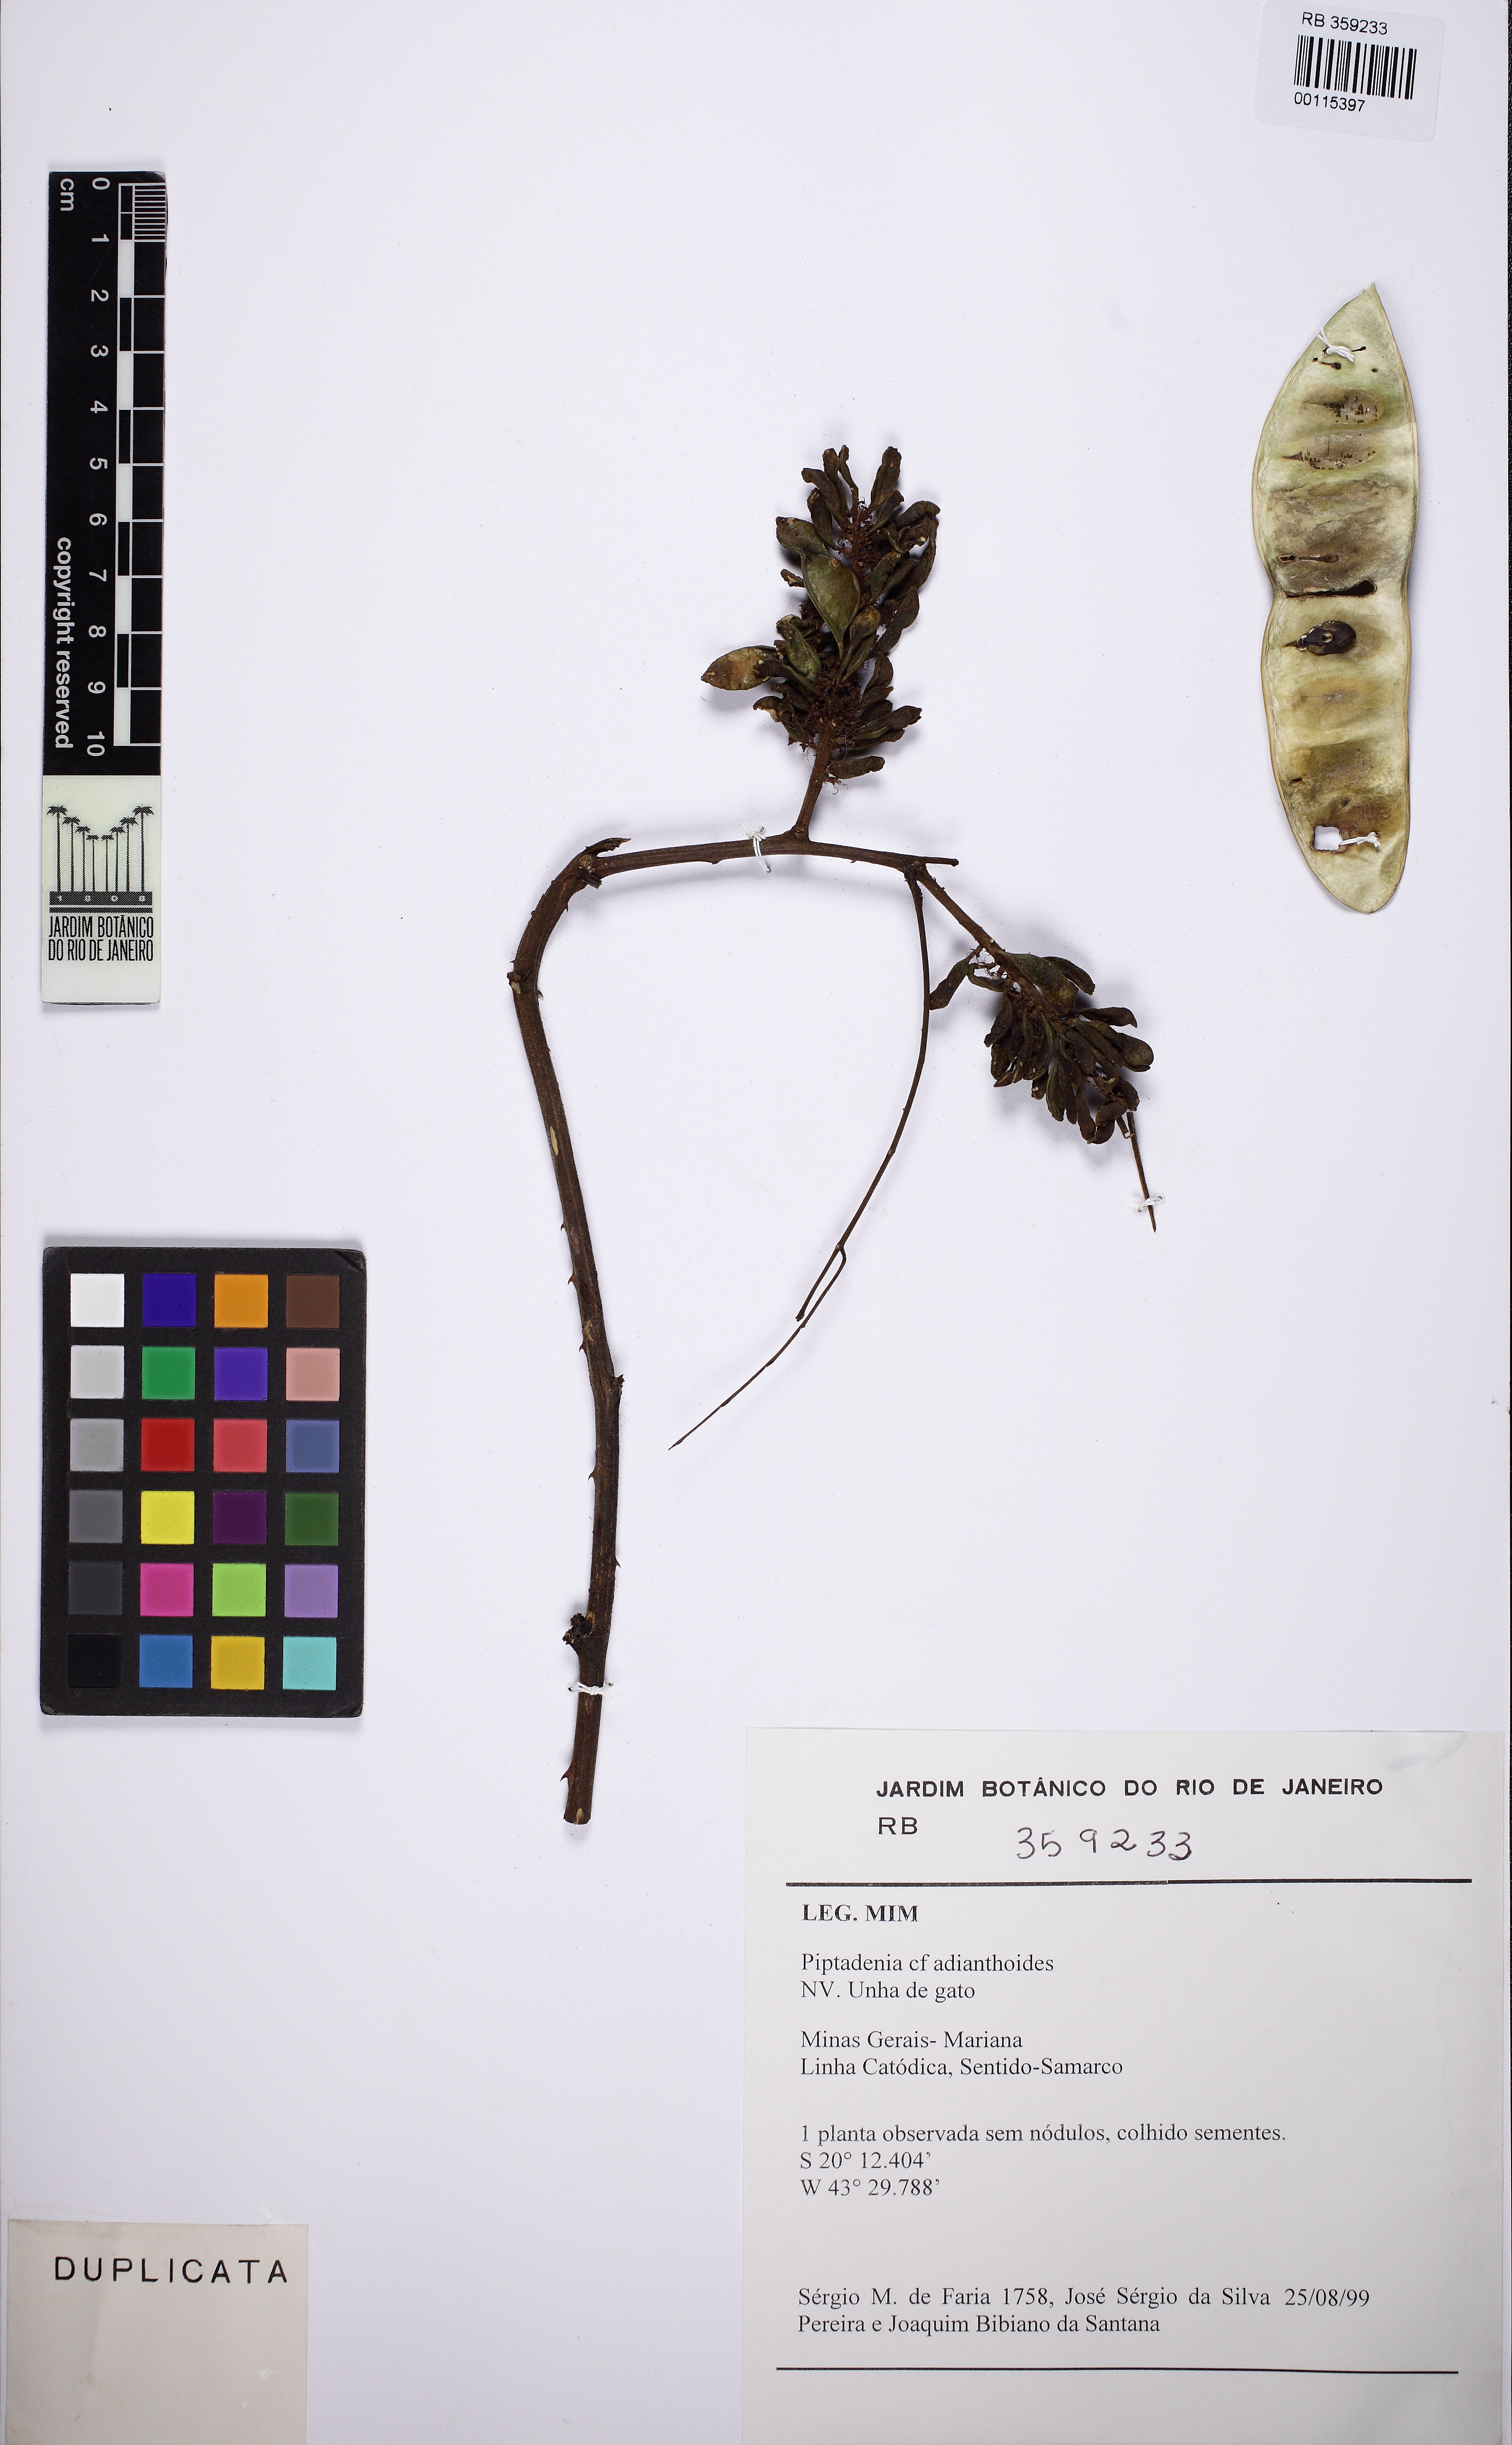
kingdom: Plantae
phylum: Tracheophyta
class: Magnoliopsida
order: Fabales
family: Fabaceae
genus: Piptadenia
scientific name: Piptadenia adiantoides
